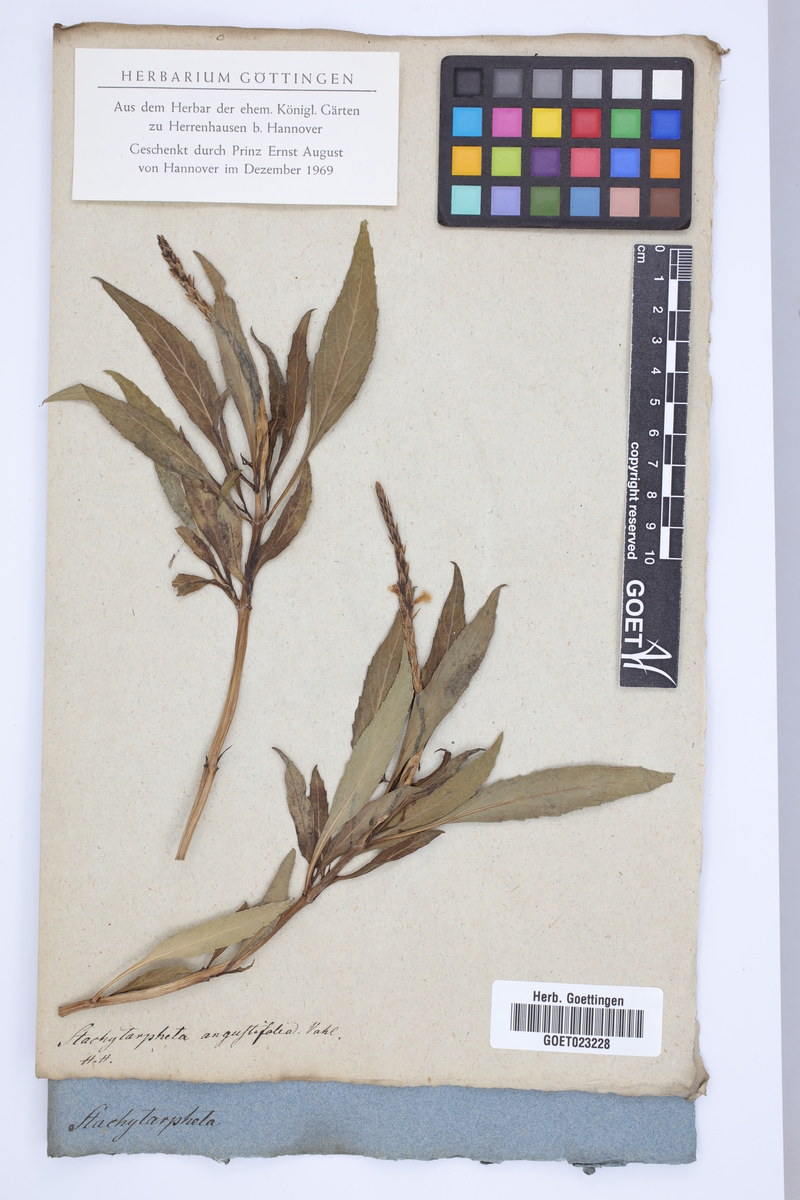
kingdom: Plantae
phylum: Tracheophyta
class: Magnoliopsida
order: Lamiales
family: Verbenaceae
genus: Stachytarpheta
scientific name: Stachytarpheta indica
